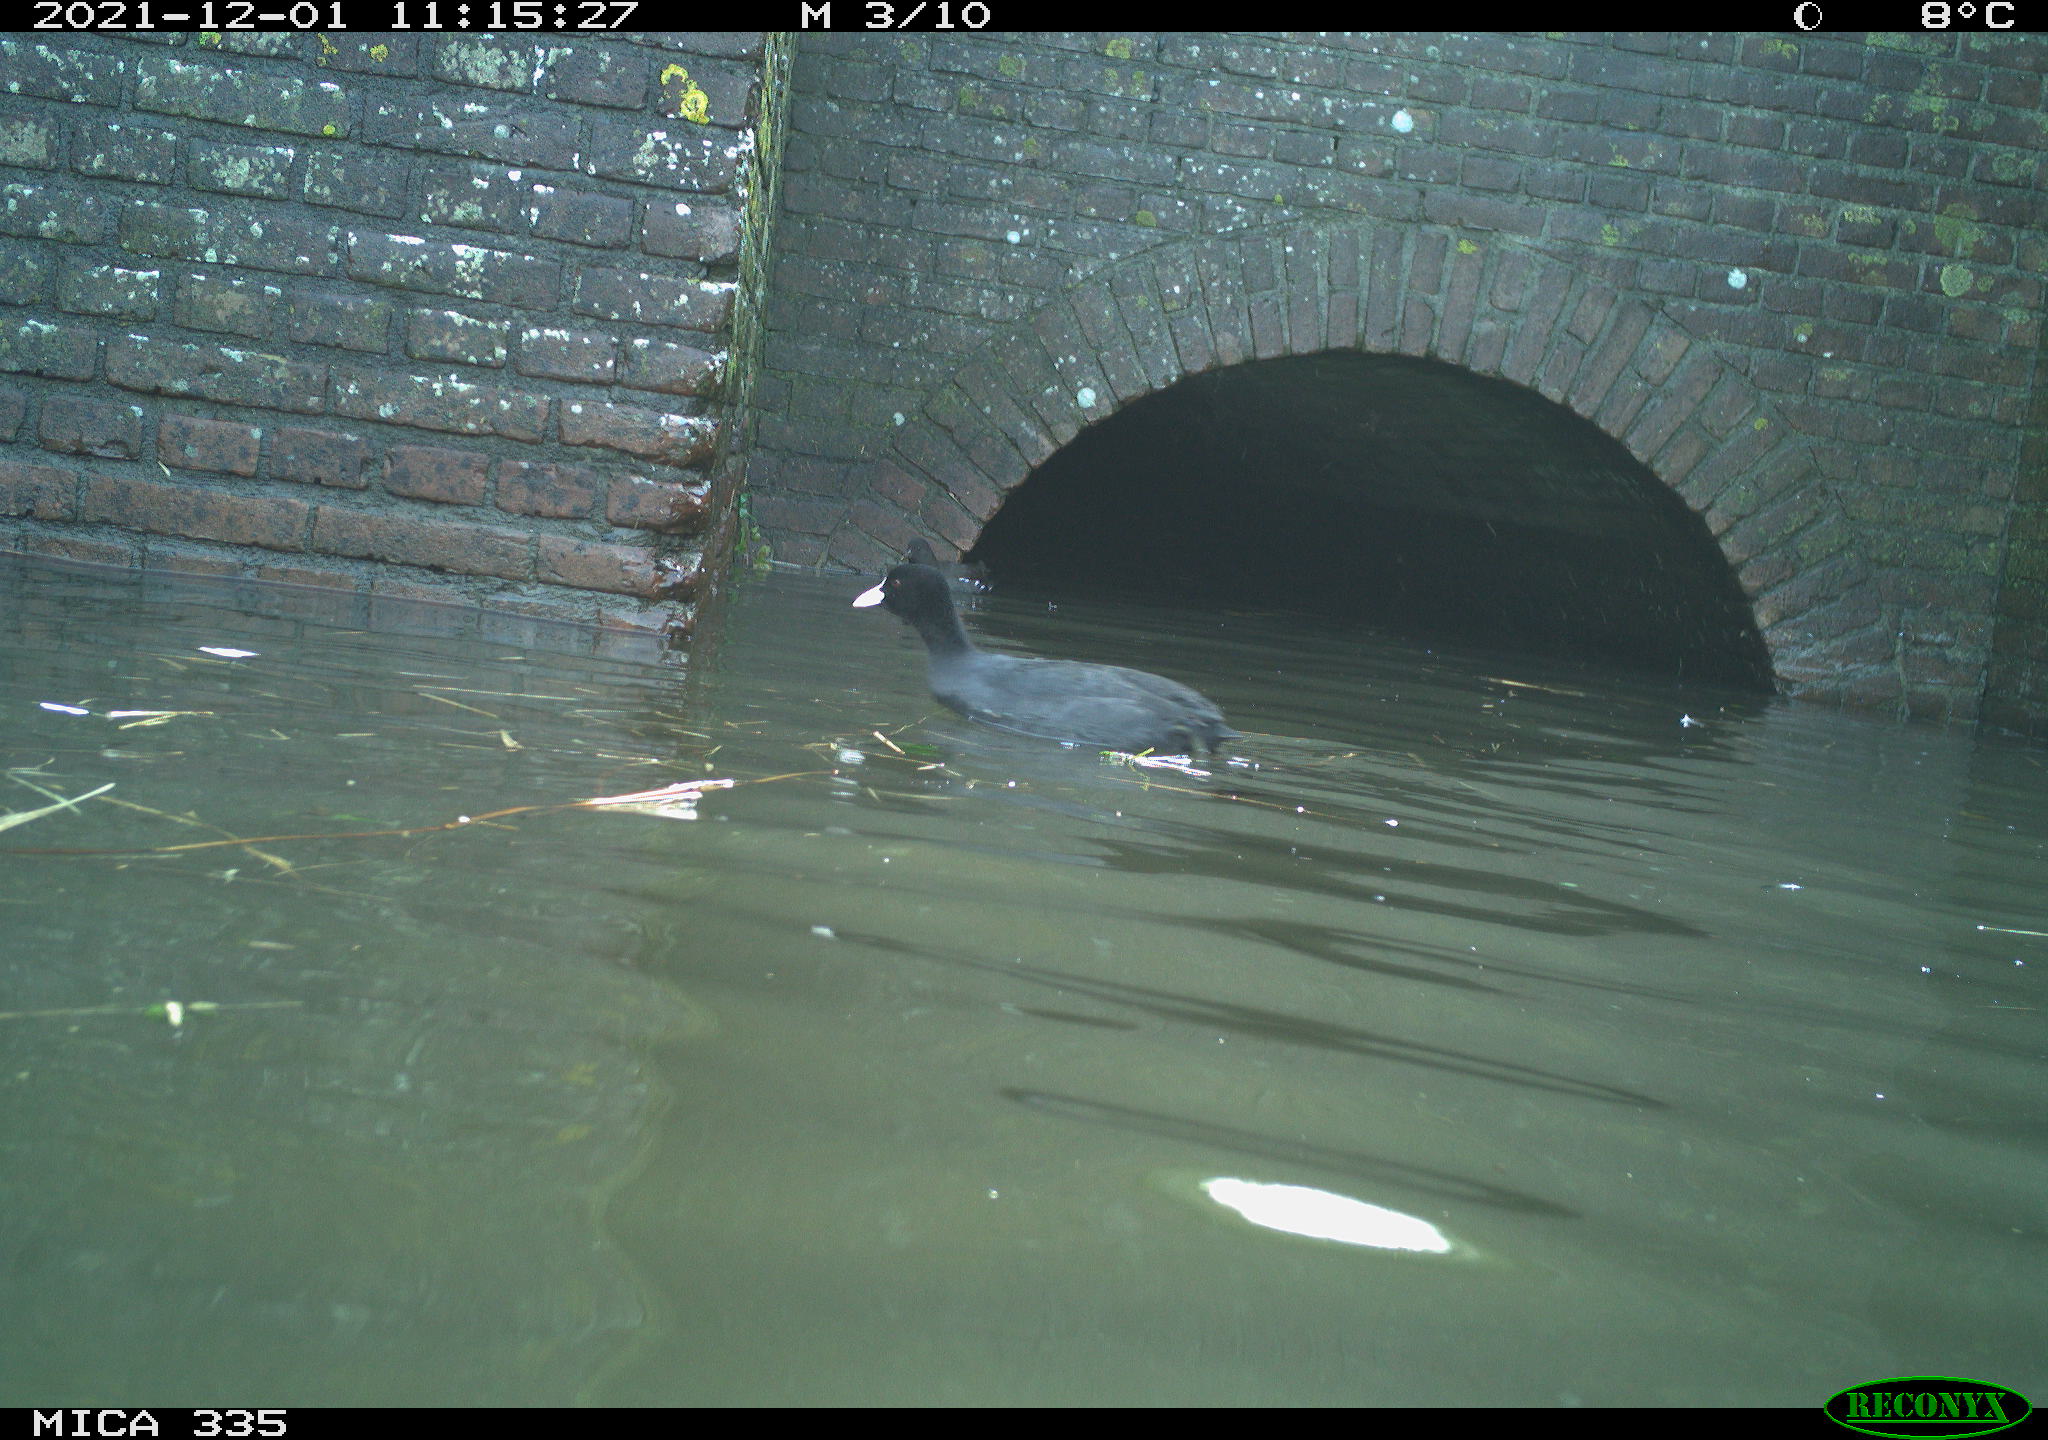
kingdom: Animalia
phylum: Chordata
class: Aves
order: Gruiformes
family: Rallidae
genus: Fulica
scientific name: Fulica atra
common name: Eurasian coot
